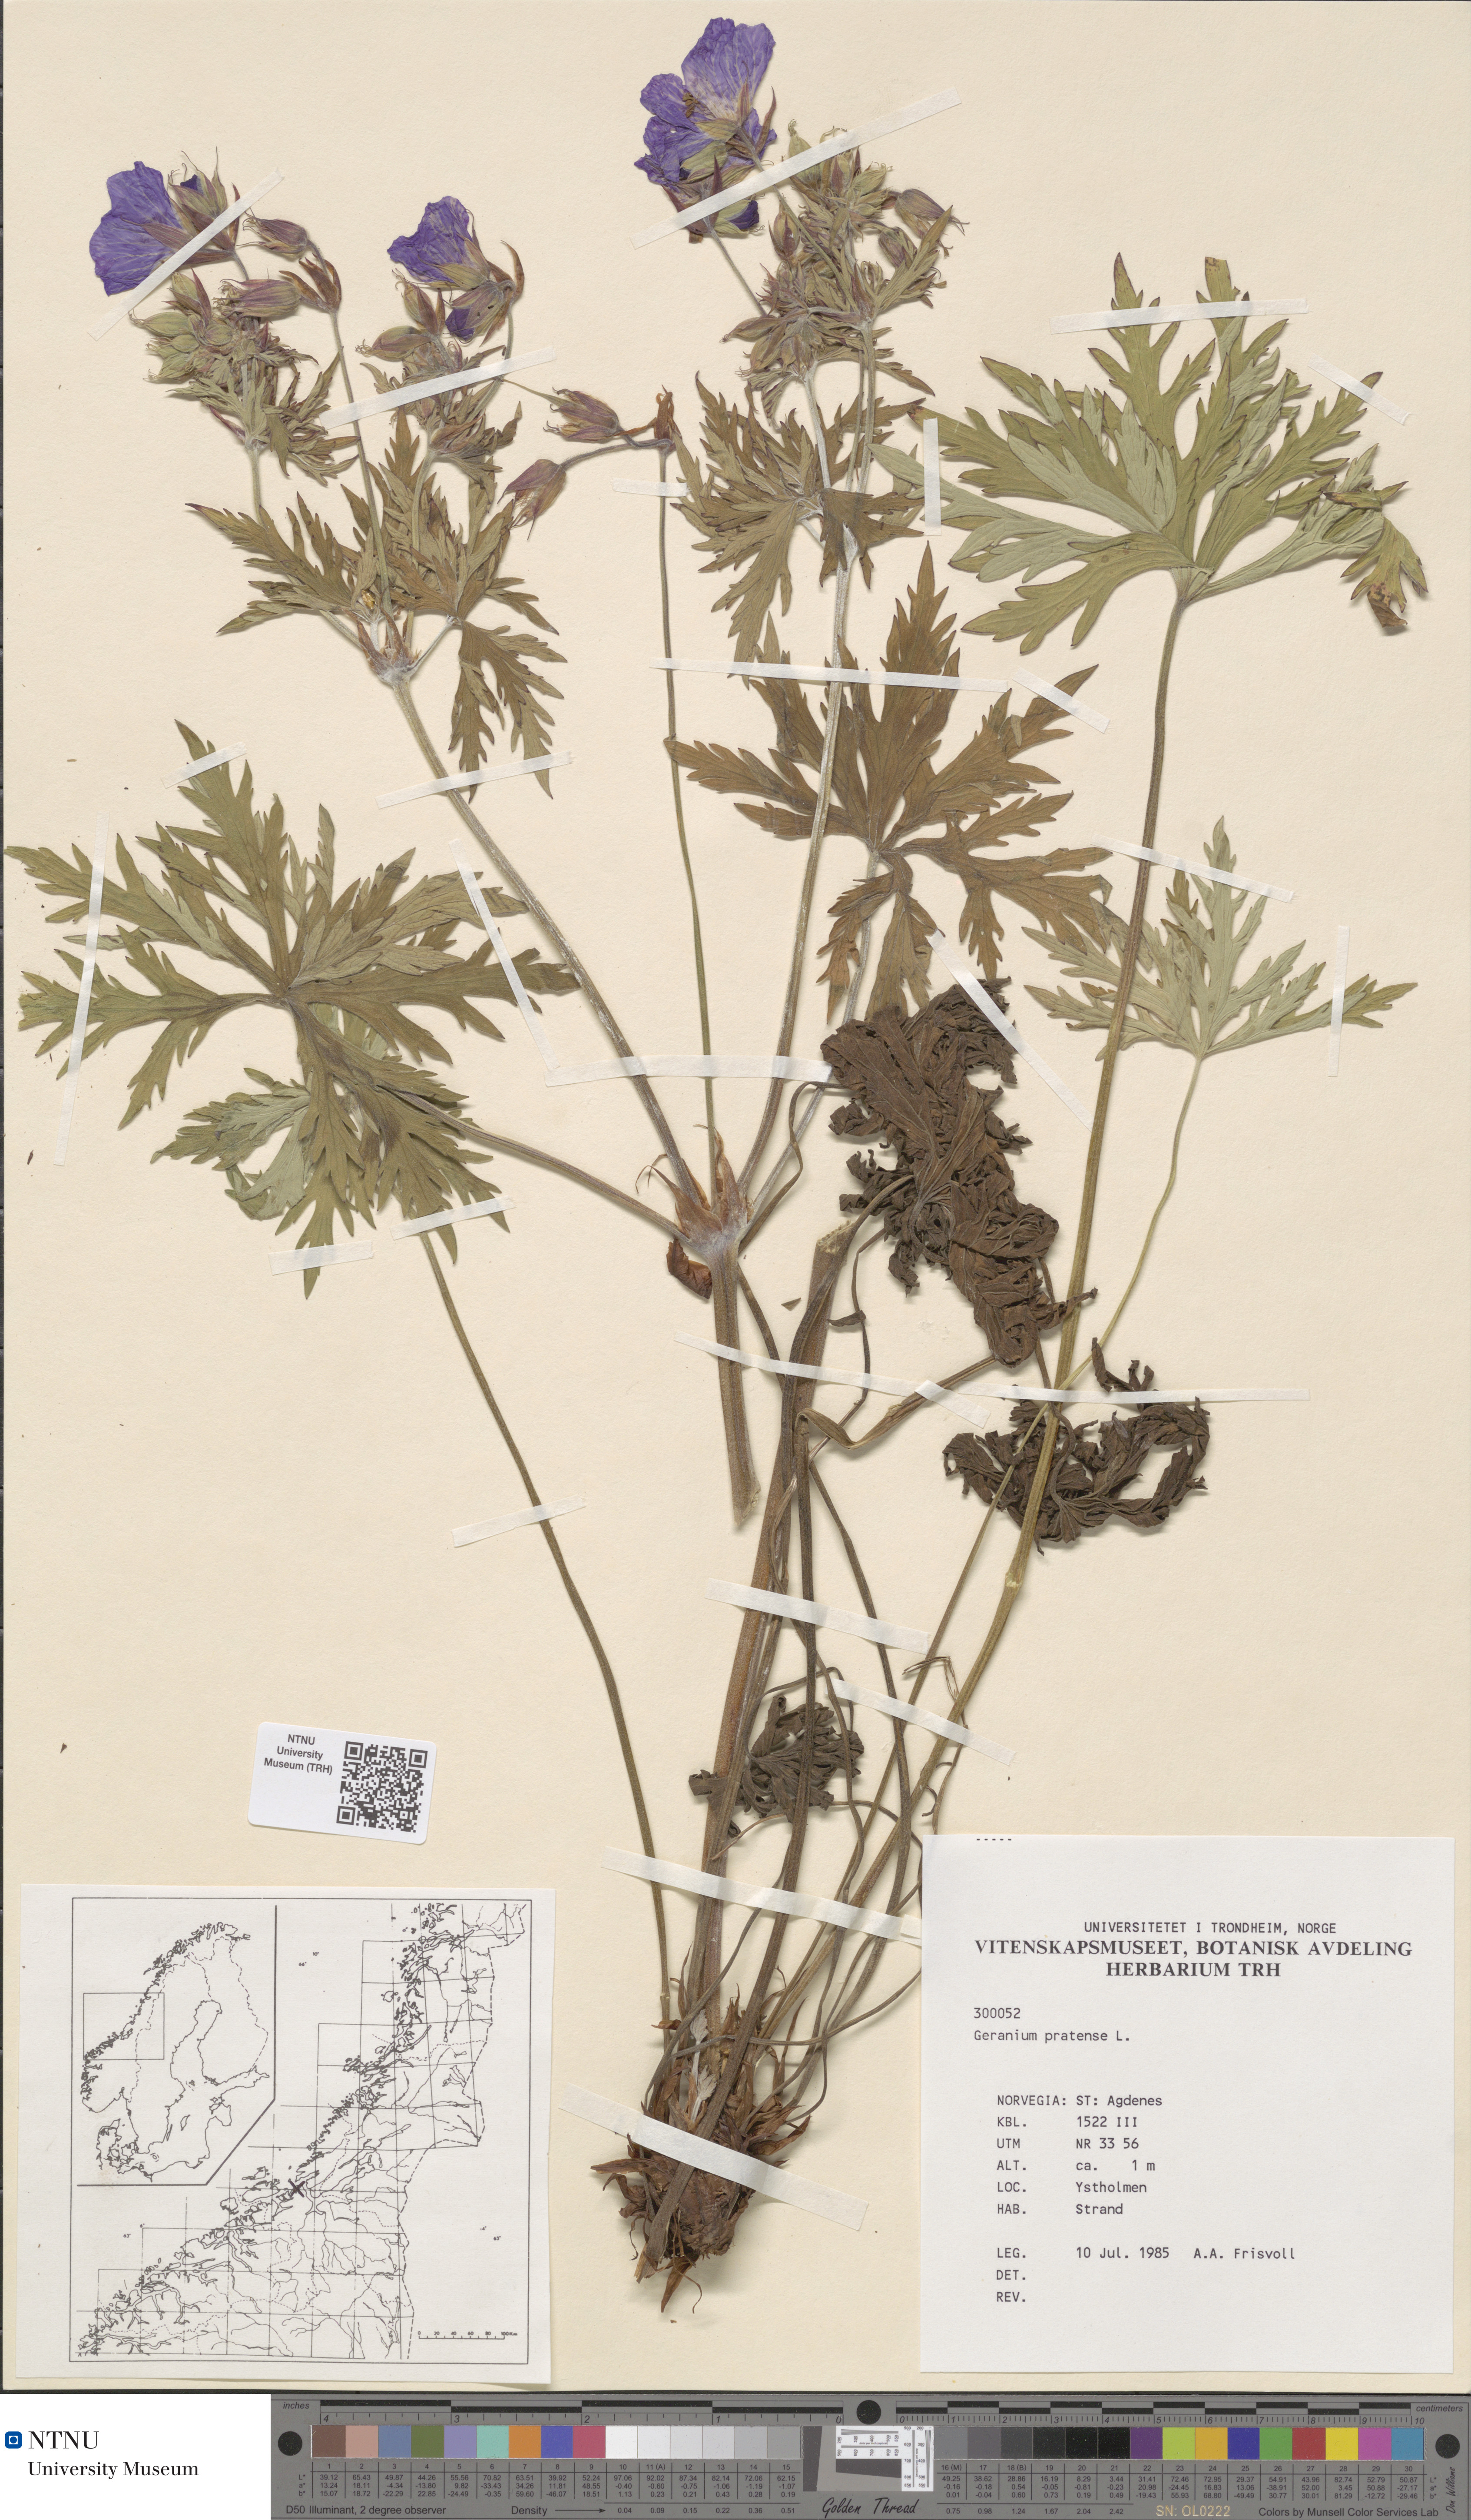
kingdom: Plantae
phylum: Tracheophyta
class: Magnoliopsida
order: Geraniales
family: Geraniaceae
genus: Geranium
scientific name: Geranium pratense
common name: Meadow crane's-bill
